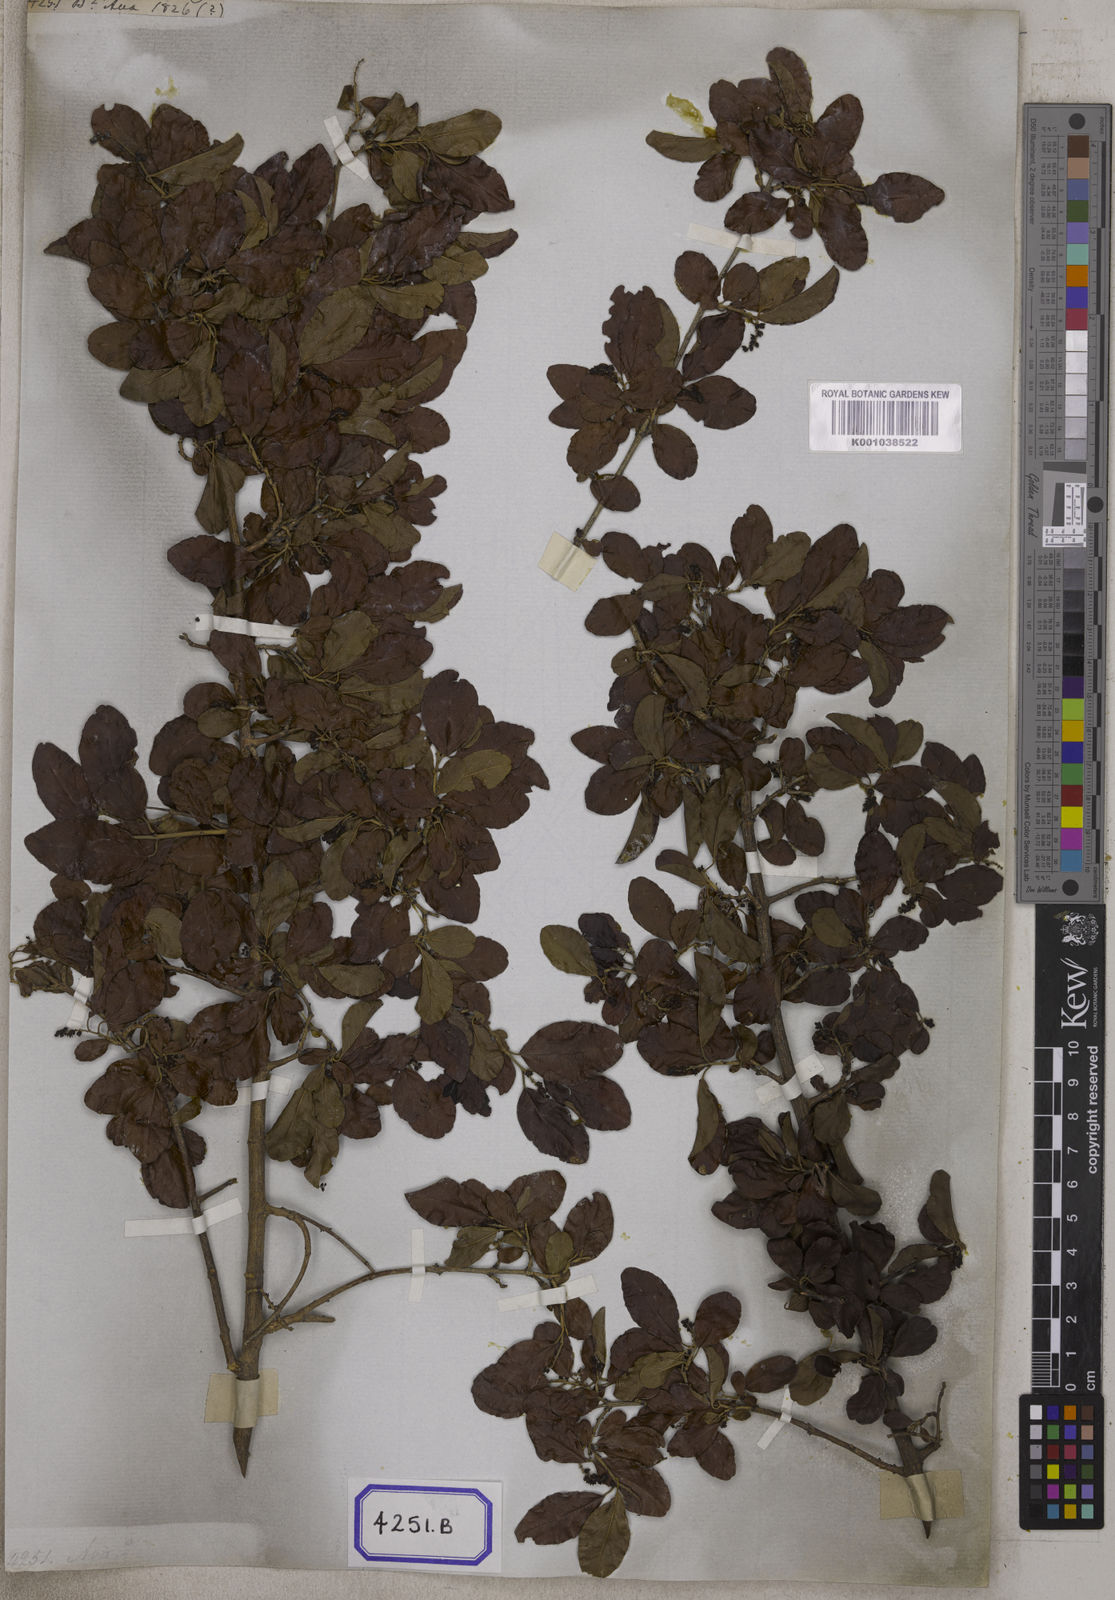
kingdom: Plantae
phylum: Tracheophyta
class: Magnoliopsida
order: Rosales
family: Rhamnaceae
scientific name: Rhamnaceae
